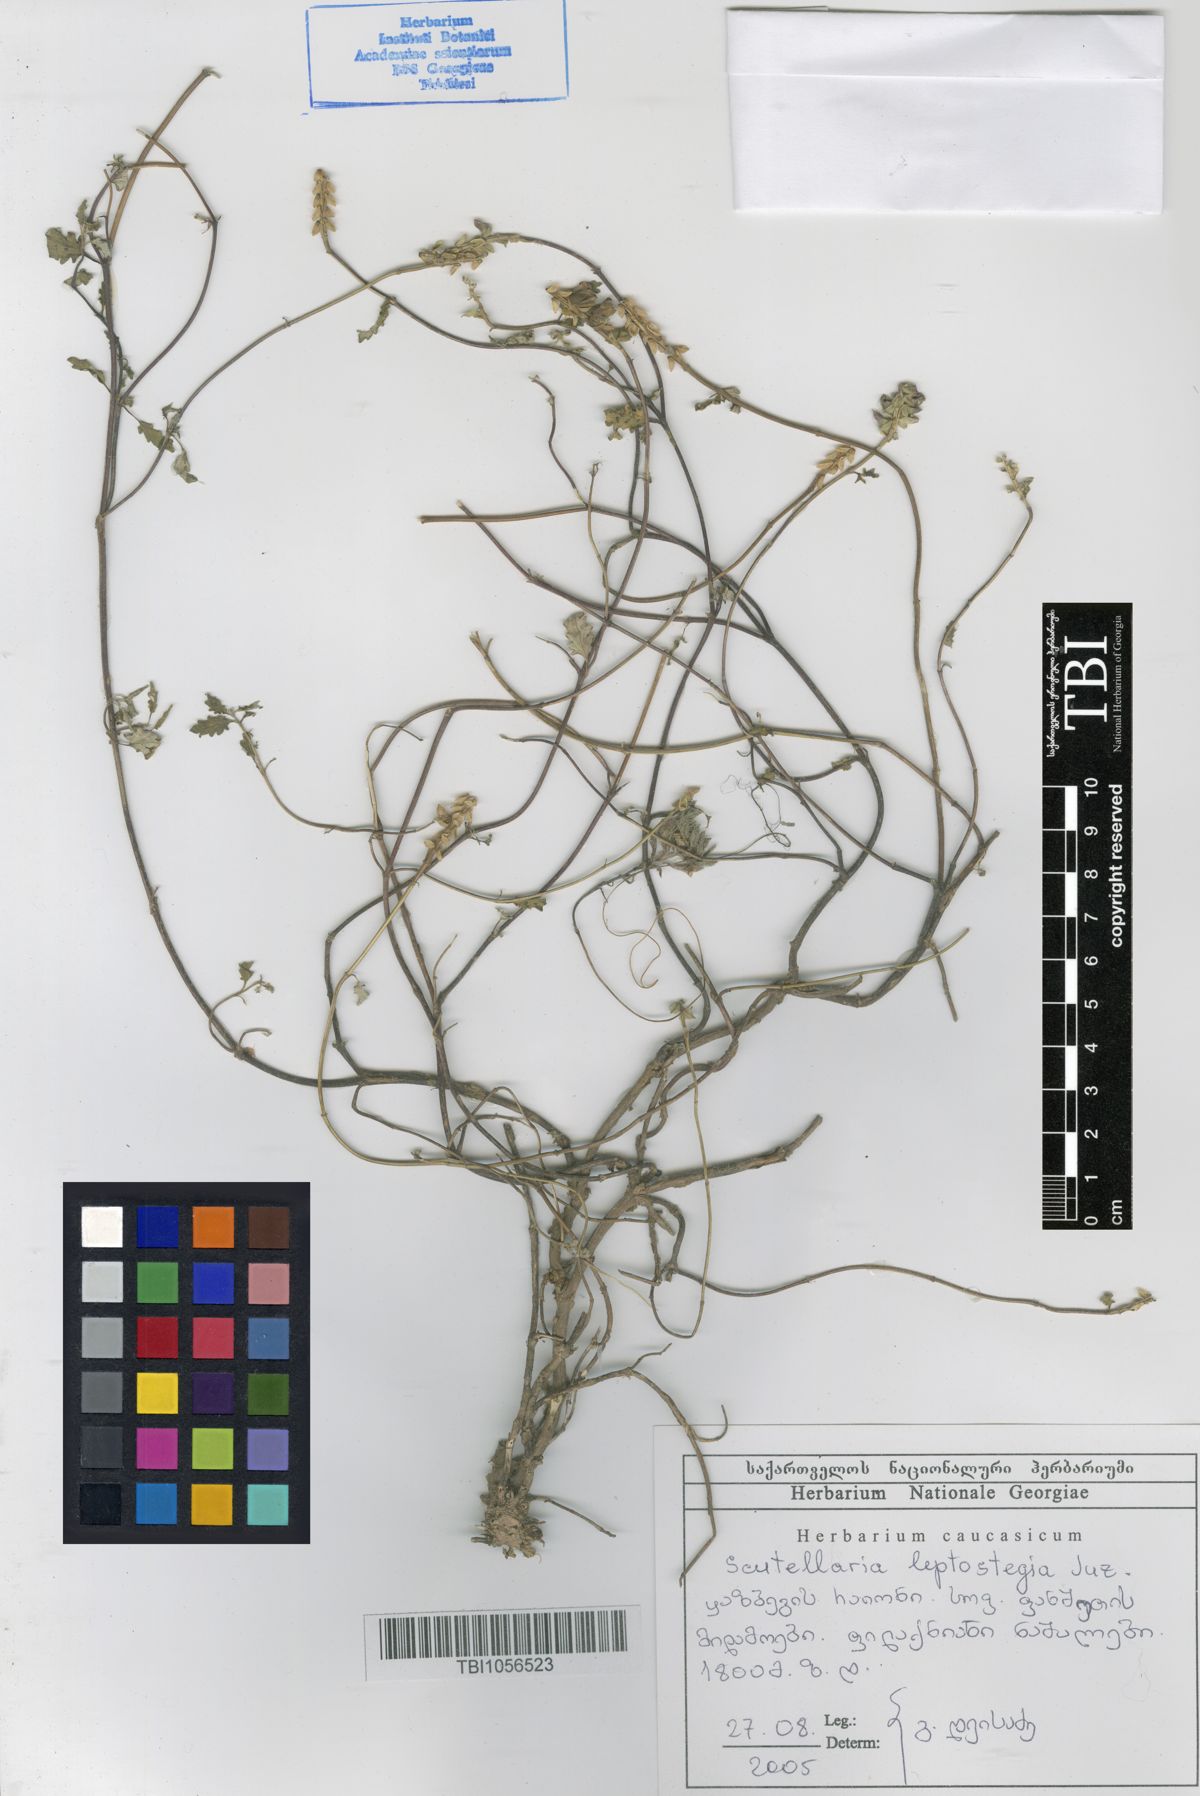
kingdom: Plantae
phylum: Tracheophyta
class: Magnoliopsida
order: Lamiales
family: Lamiaceae
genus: Scutellaria
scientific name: Scutellaria leptostegia
